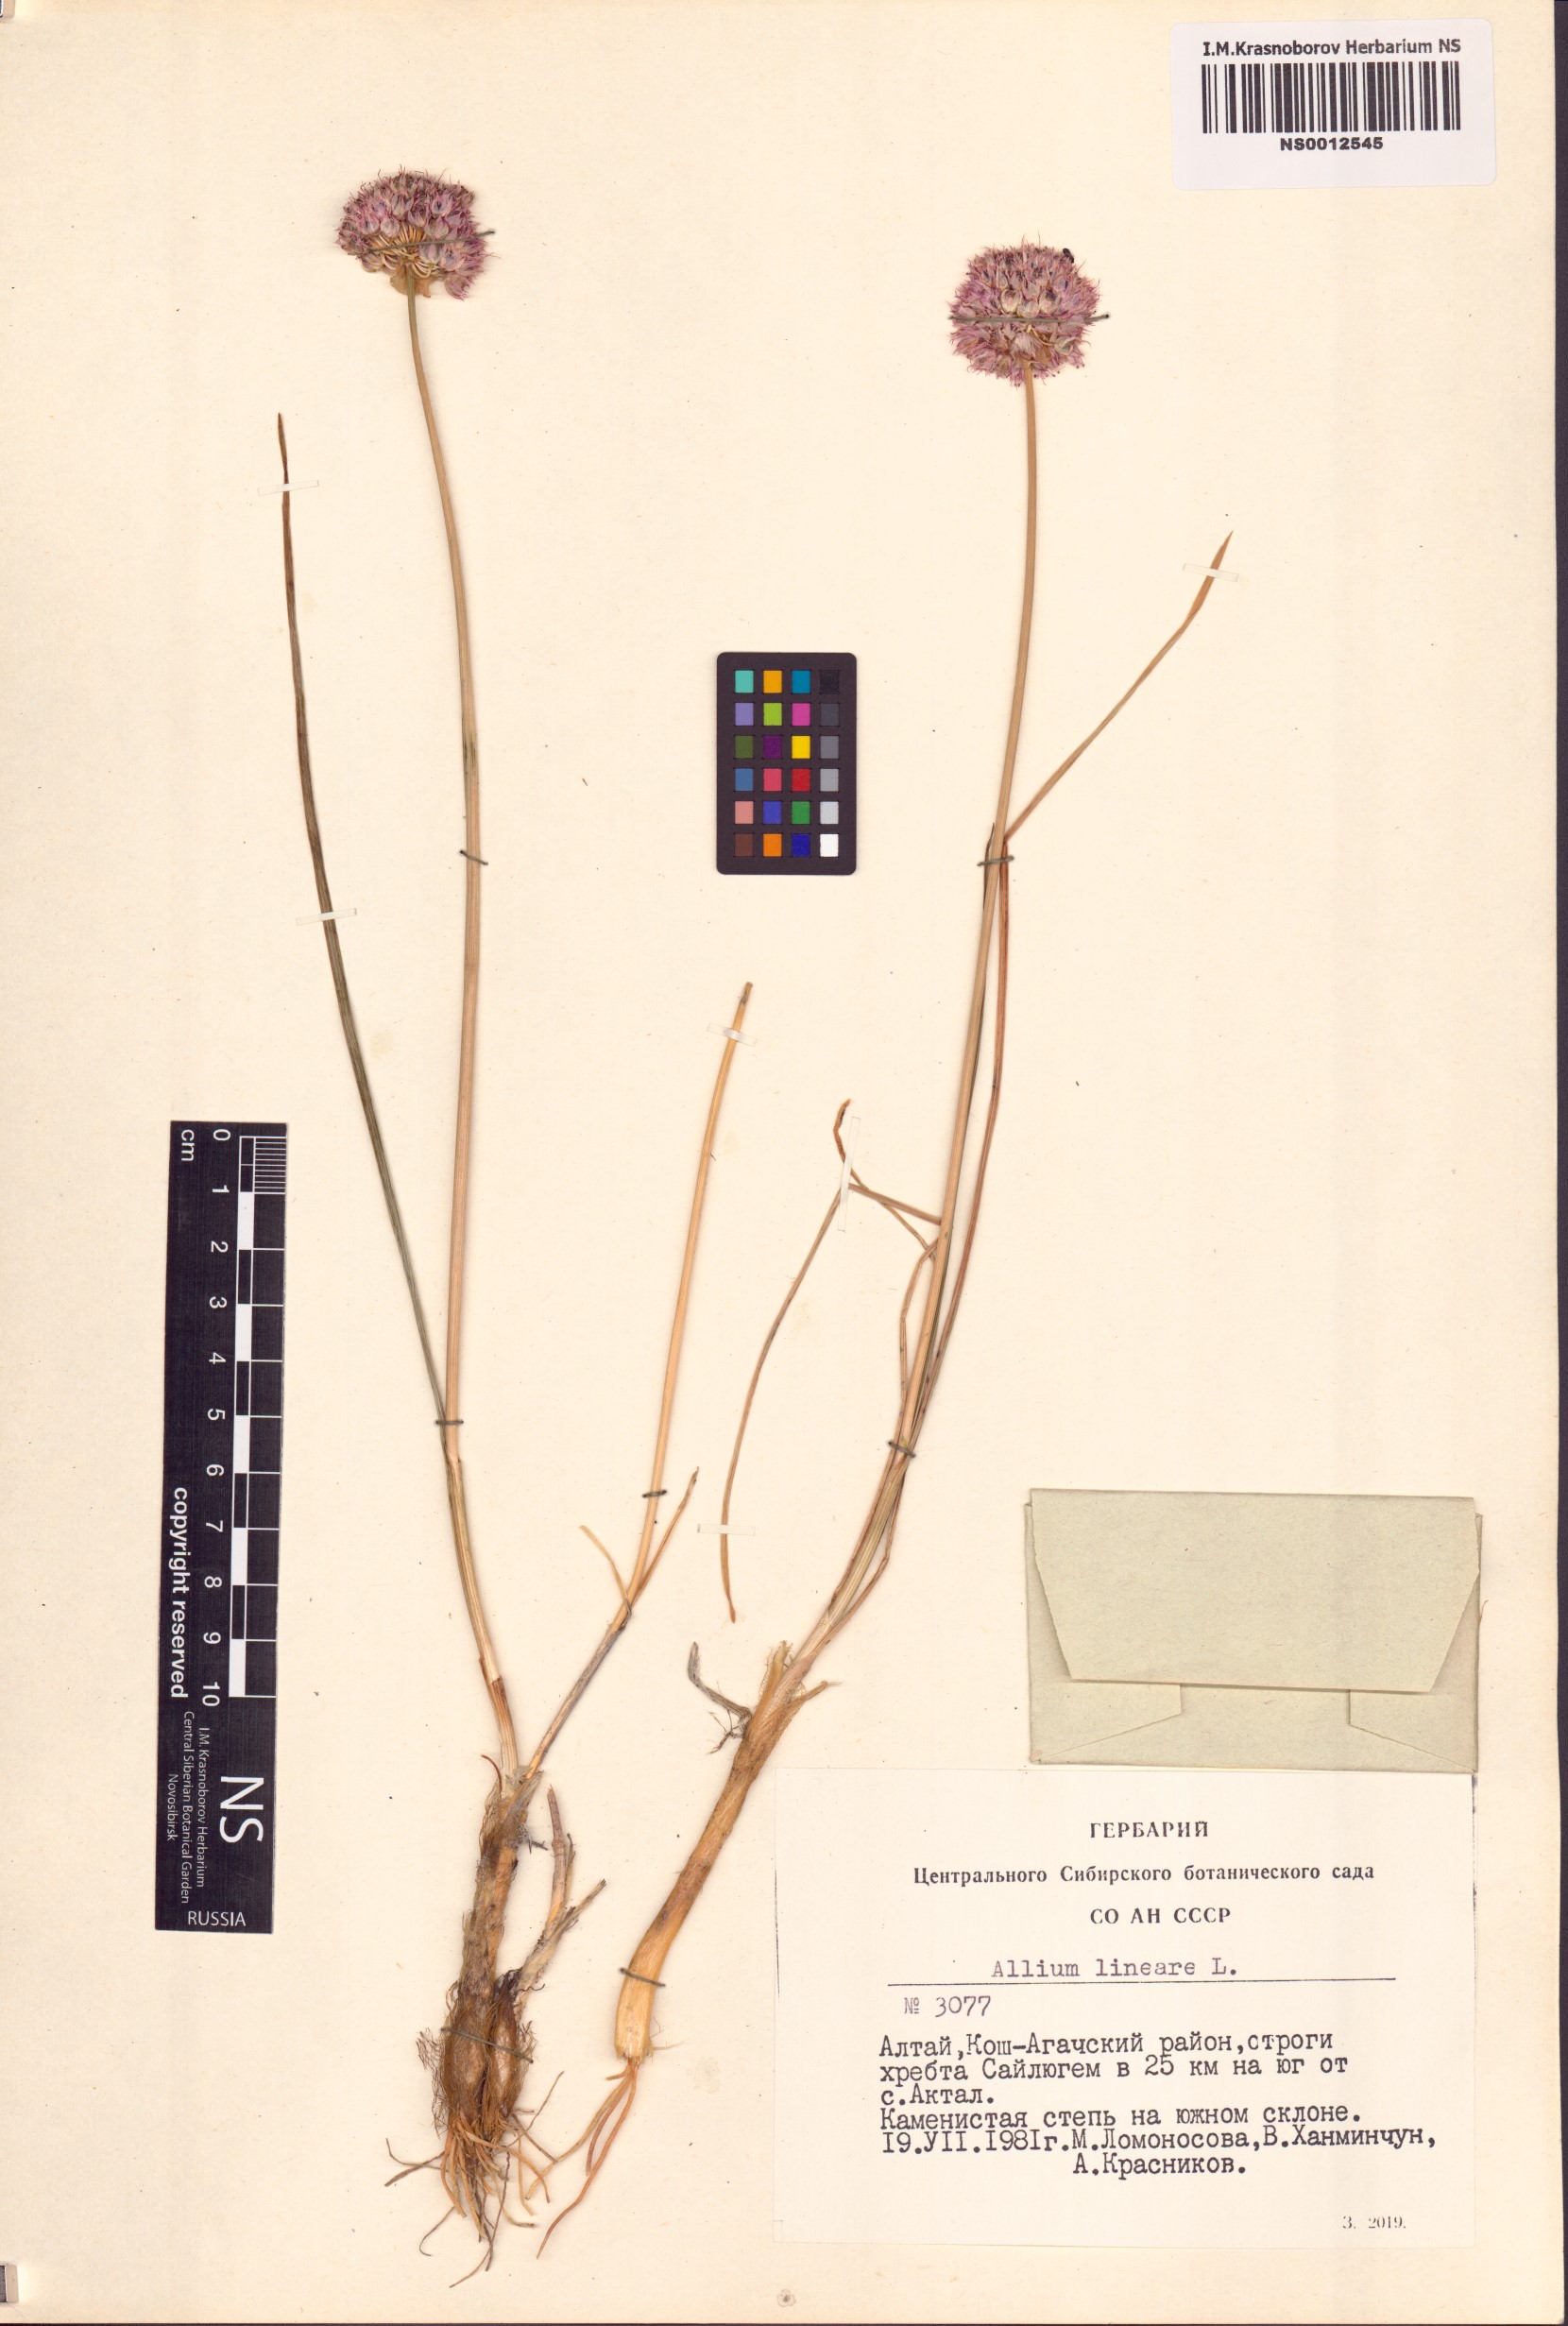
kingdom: Plantae
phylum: Tracheophyta
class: Liliopsida
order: Asparagales
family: Amaryllidaceae
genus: Allium
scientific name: Allium lineare
